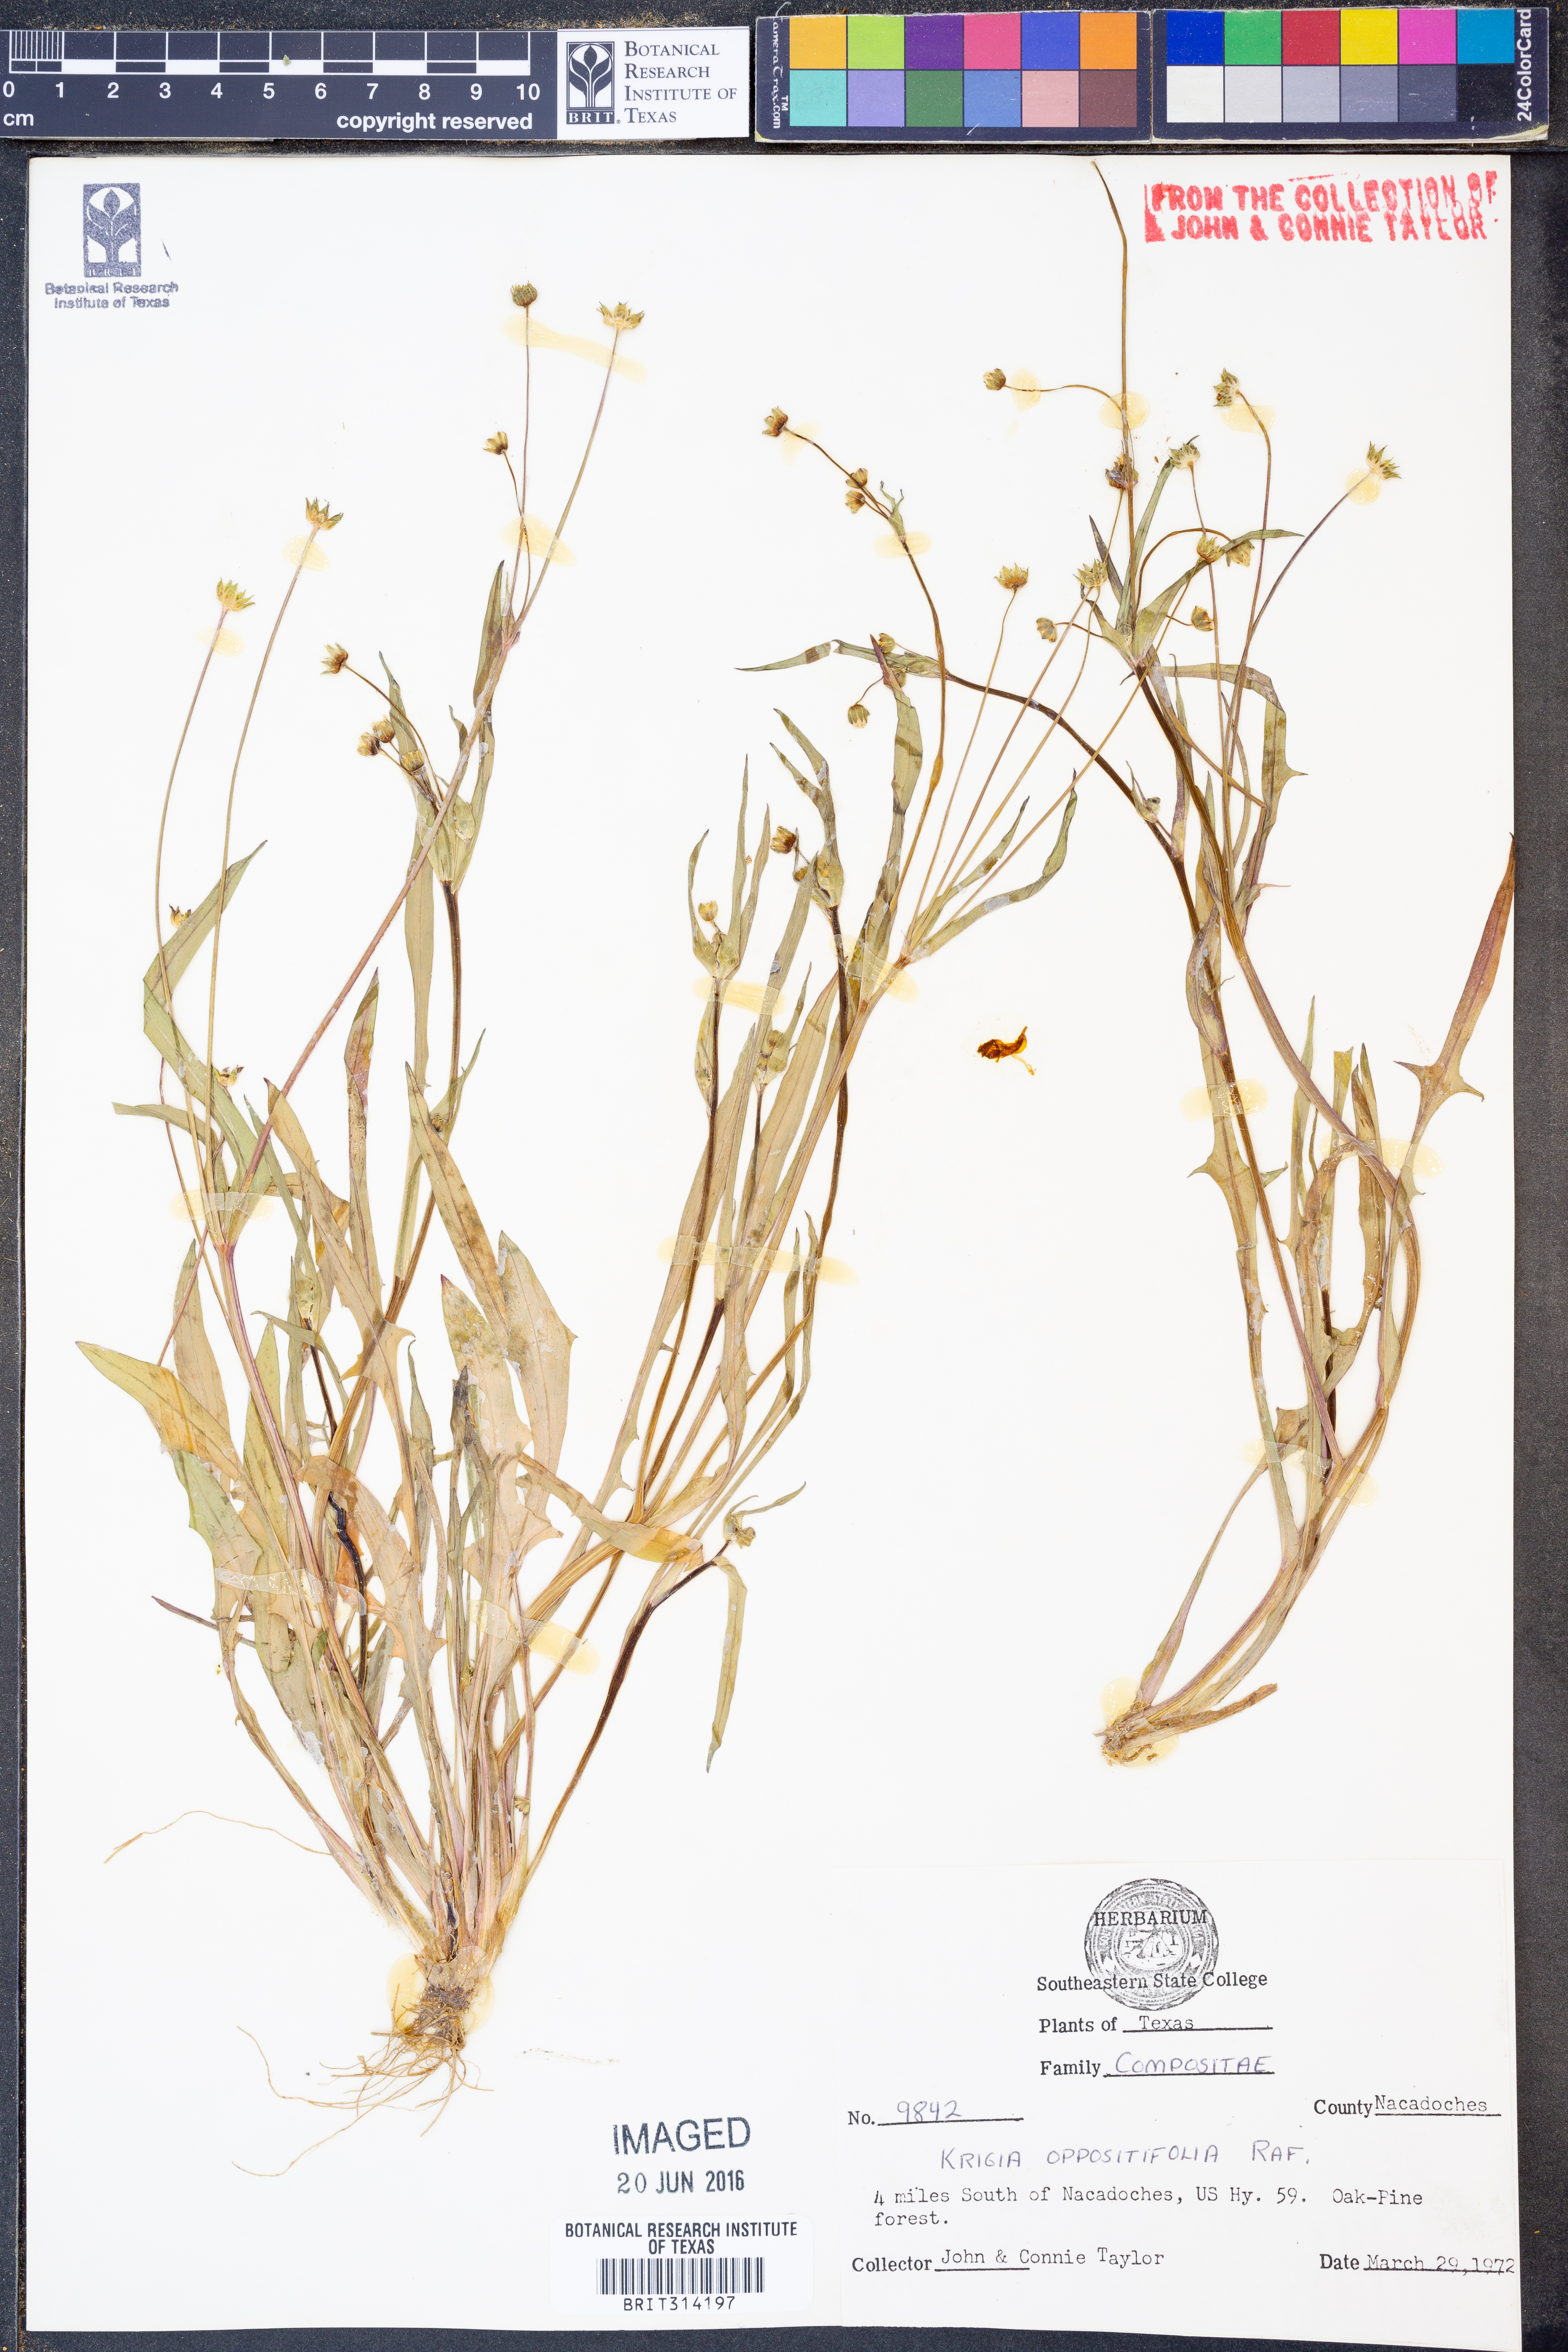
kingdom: Plantae
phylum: Tracheophyta
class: Magnoliopsida
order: Asterales
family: Asteraceae
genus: Krigia
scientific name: Krigia cespitosa
